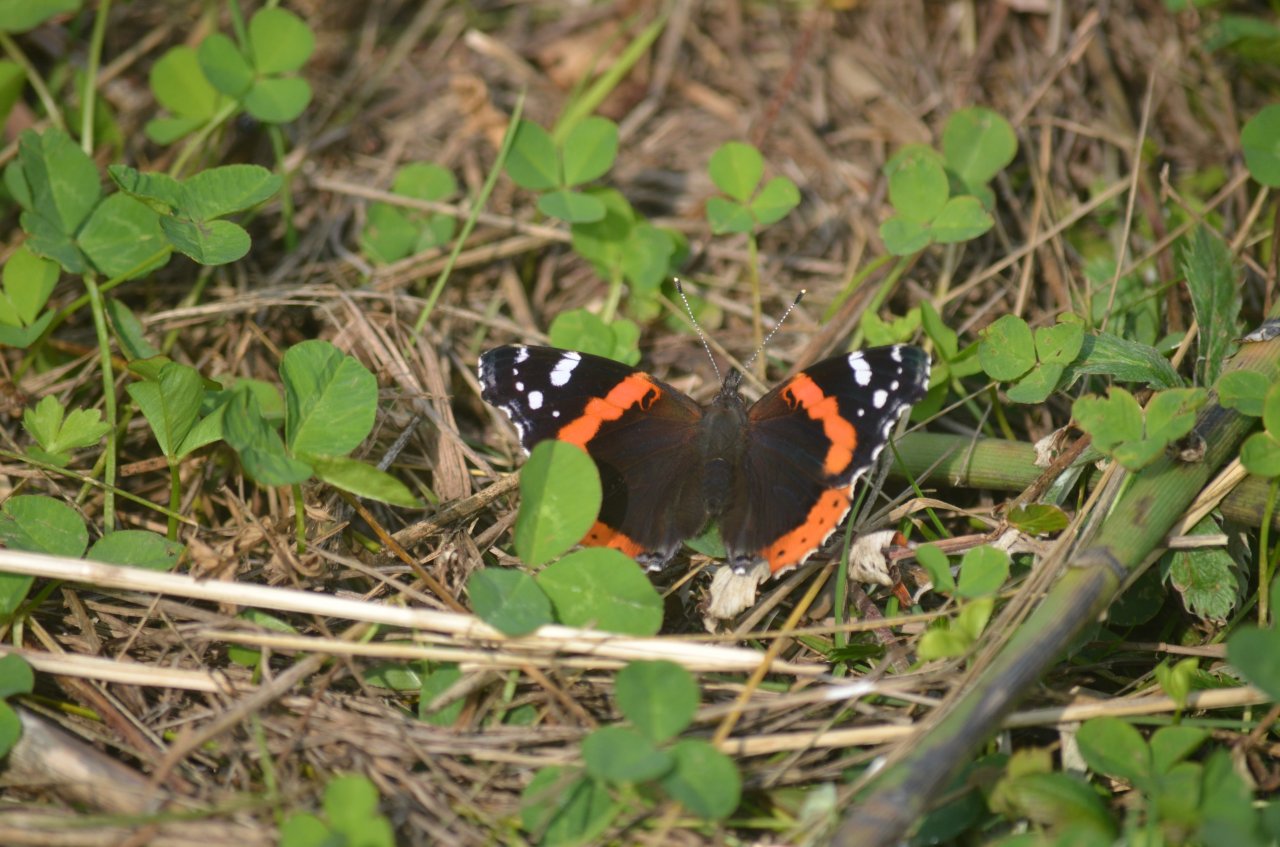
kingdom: Animalia
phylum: Arthropoda
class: Insecta
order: Lepidoptera
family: Nymphalidae
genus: Vanessa
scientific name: Vanessa atalanta
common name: Red Admiral
